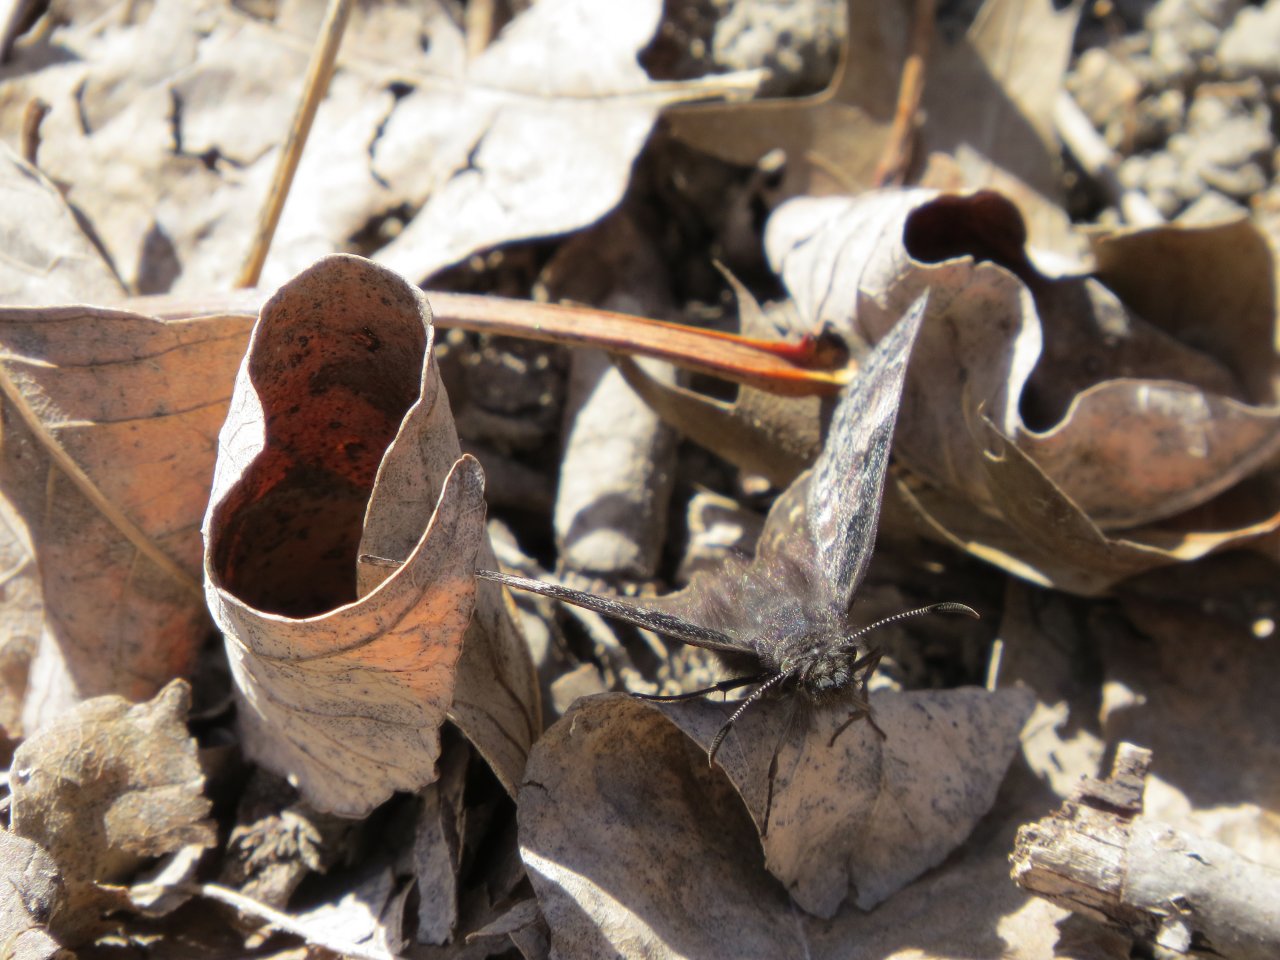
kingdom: Animalia
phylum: Arthropoda
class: Insecta
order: Lepidoptera
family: Hesperiidae
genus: Gesta
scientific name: Gesta
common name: Juvenal's Duskywing
